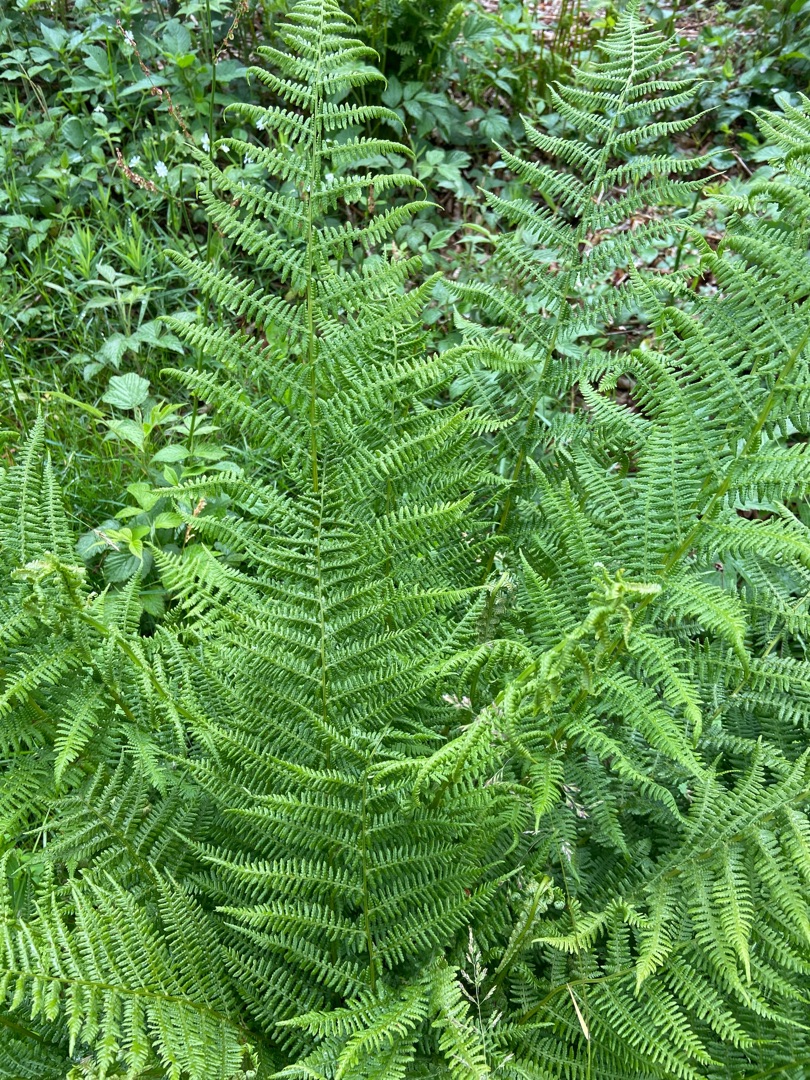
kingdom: Plantae
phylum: Tracheophyta
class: Polypodiopsida
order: Polypodiales
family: Athyriaceae
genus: Athyrium
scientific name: Athyrium filix-femina
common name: Fjerbregne
